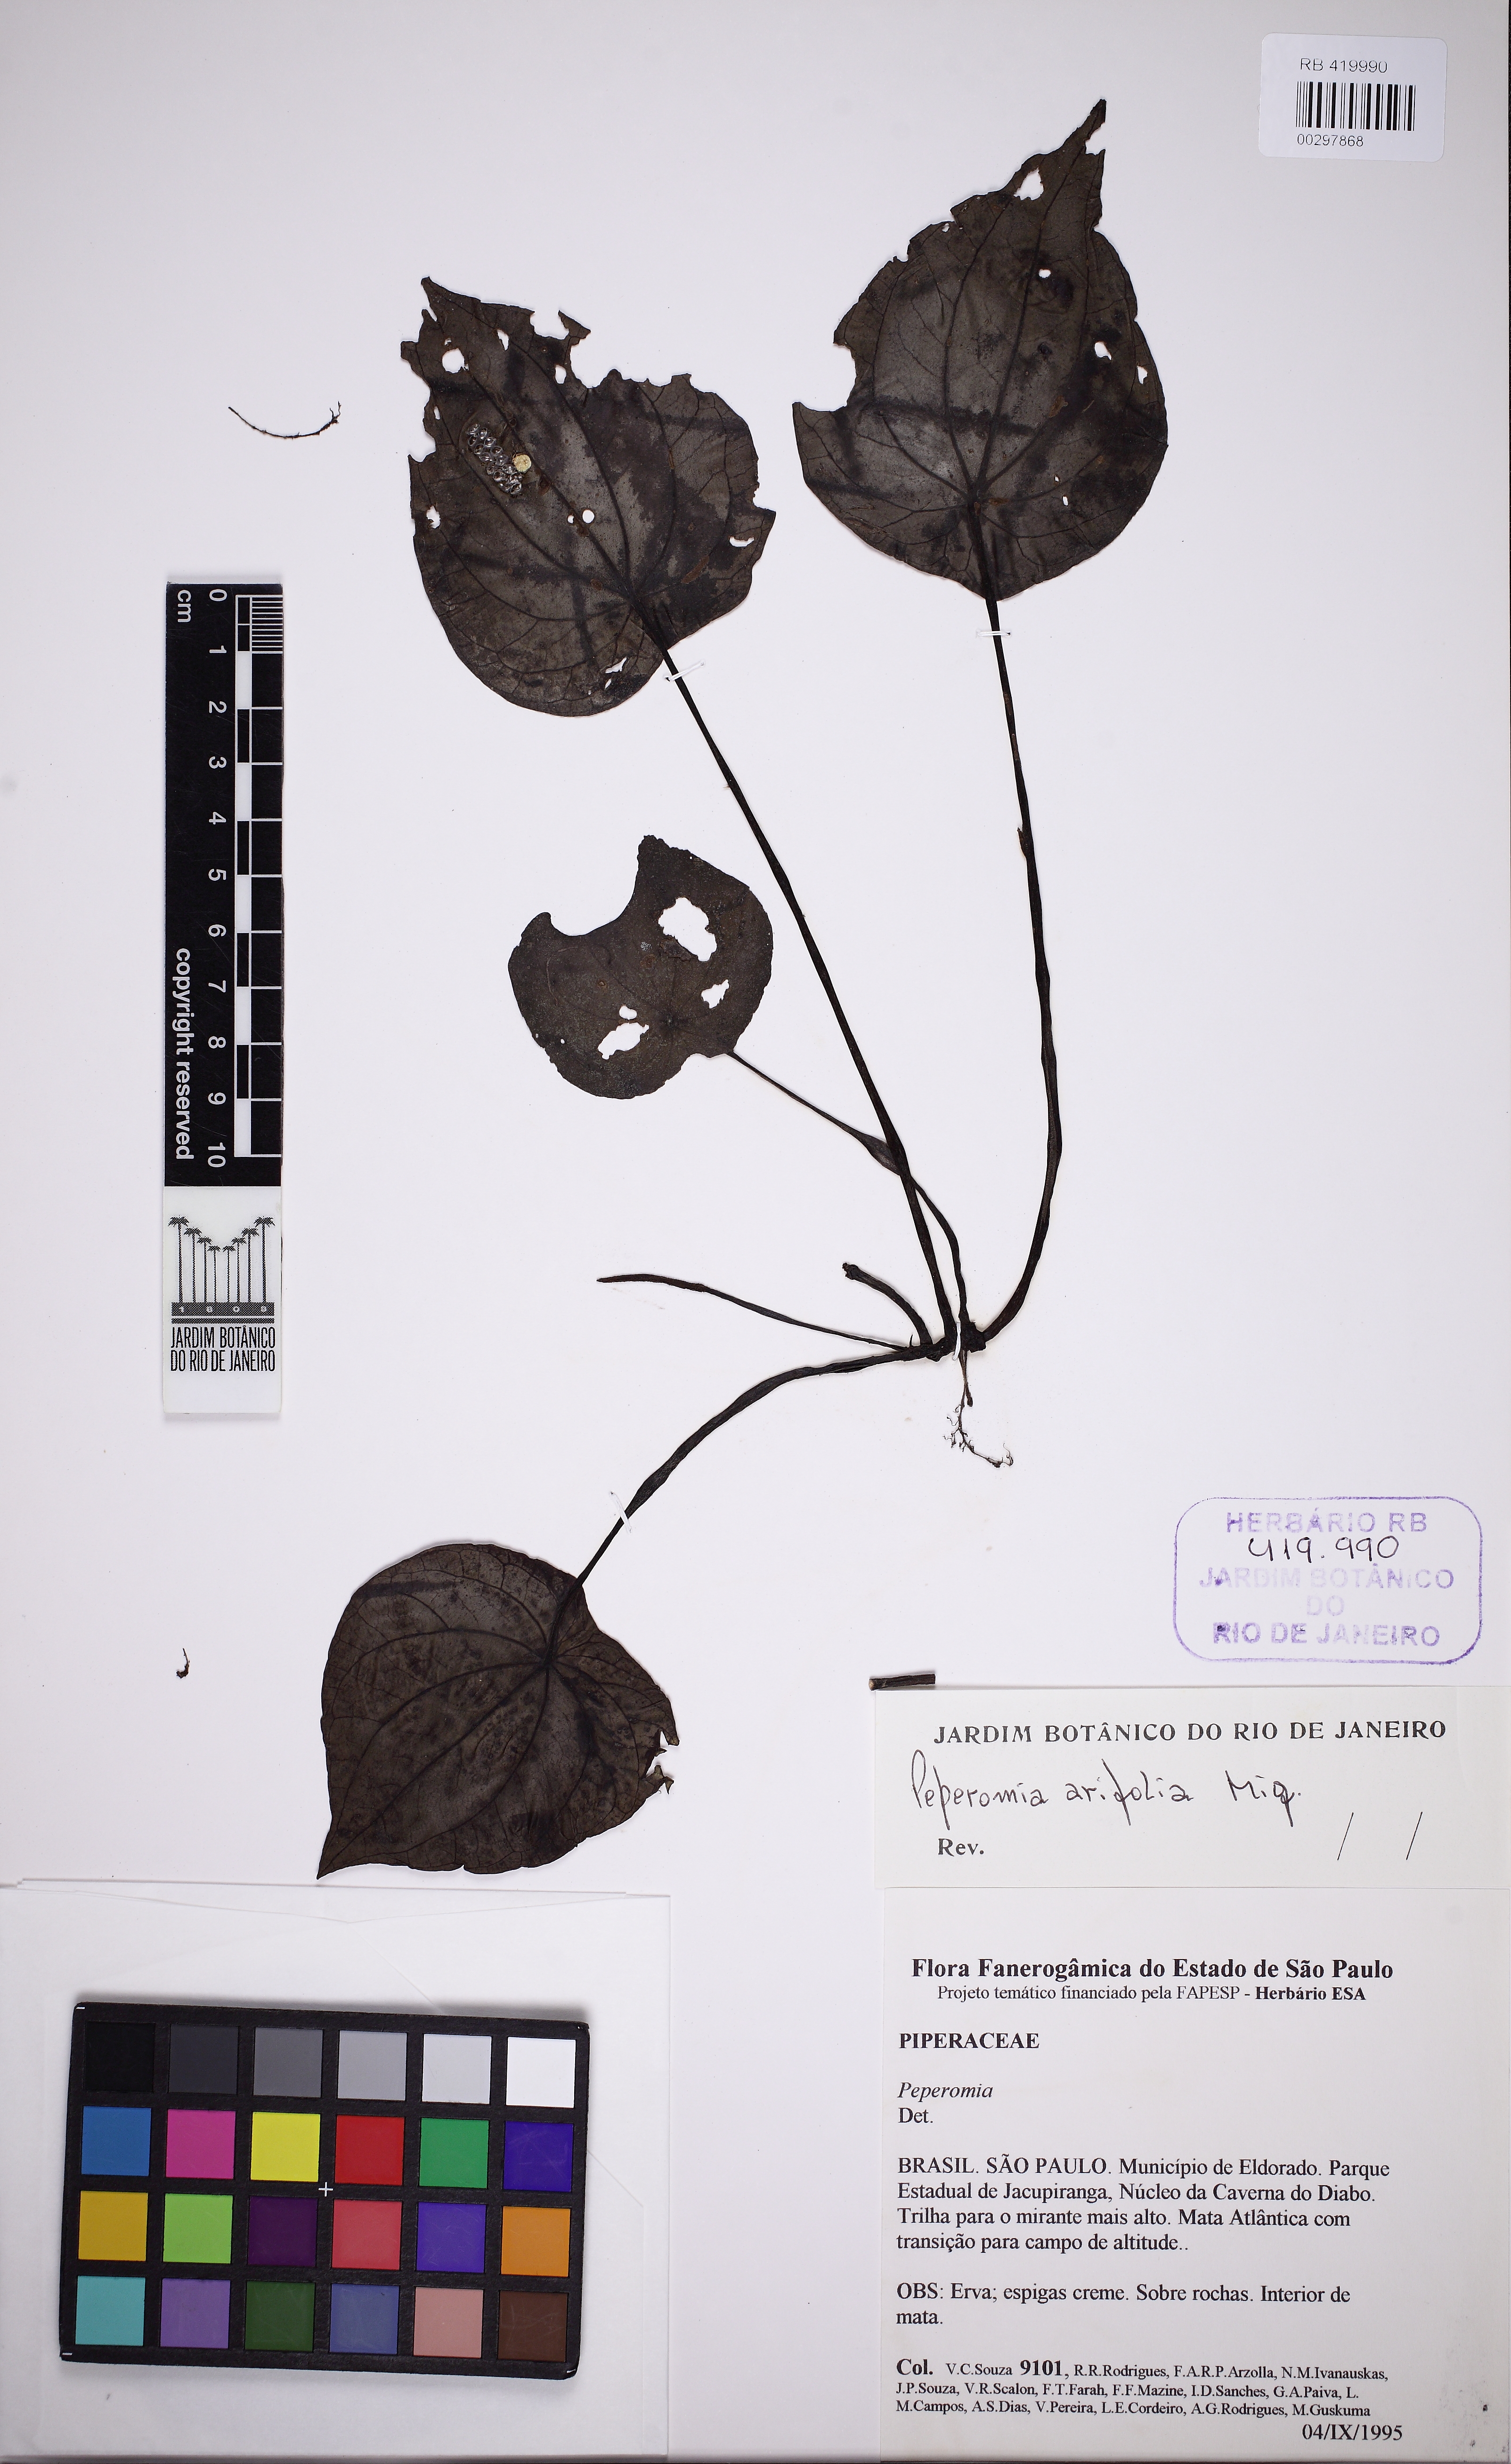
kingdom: Plantae
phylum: Tracheophyta
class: Magnoliopsida
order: Piperales
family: Piperaceae
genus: Peperomia
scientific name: Peperomia arifolia
